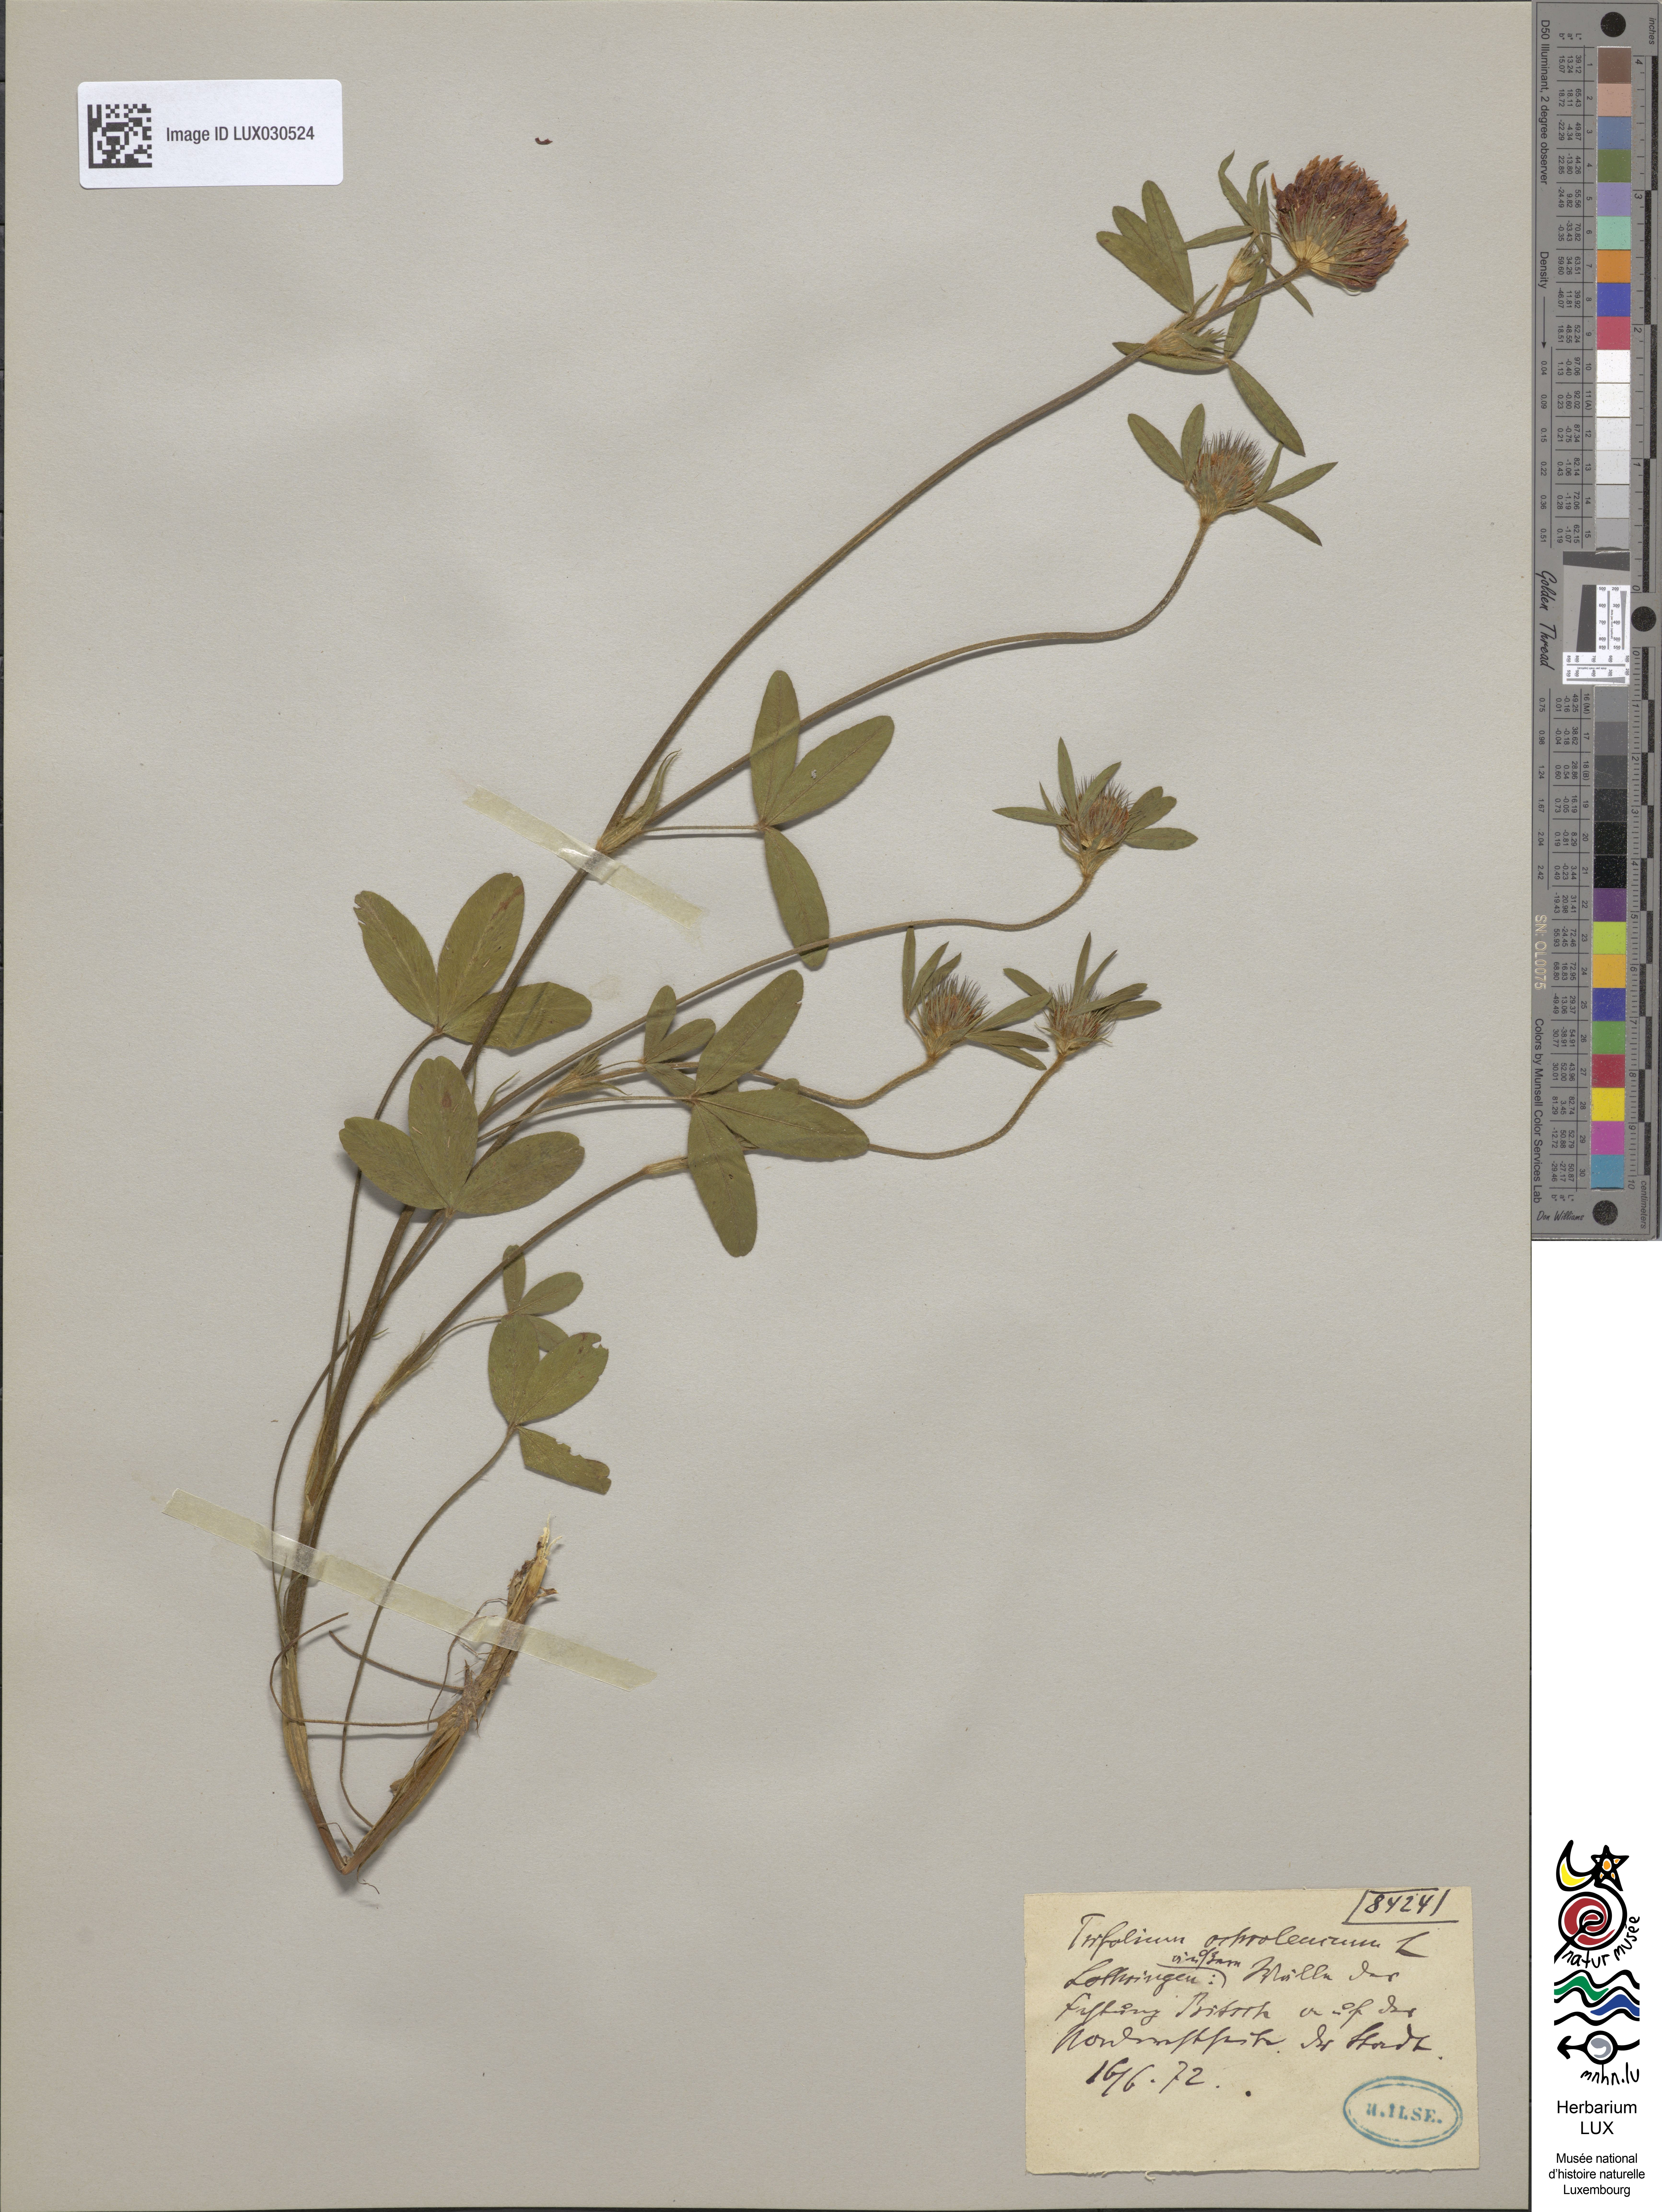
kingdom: Plantae
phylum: Tracheophyta
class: Magnoliopsida
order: Fabales
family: Fabaceae
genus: Trifolium
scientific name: Trifolium ochroleucon
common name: Sulphur clover
